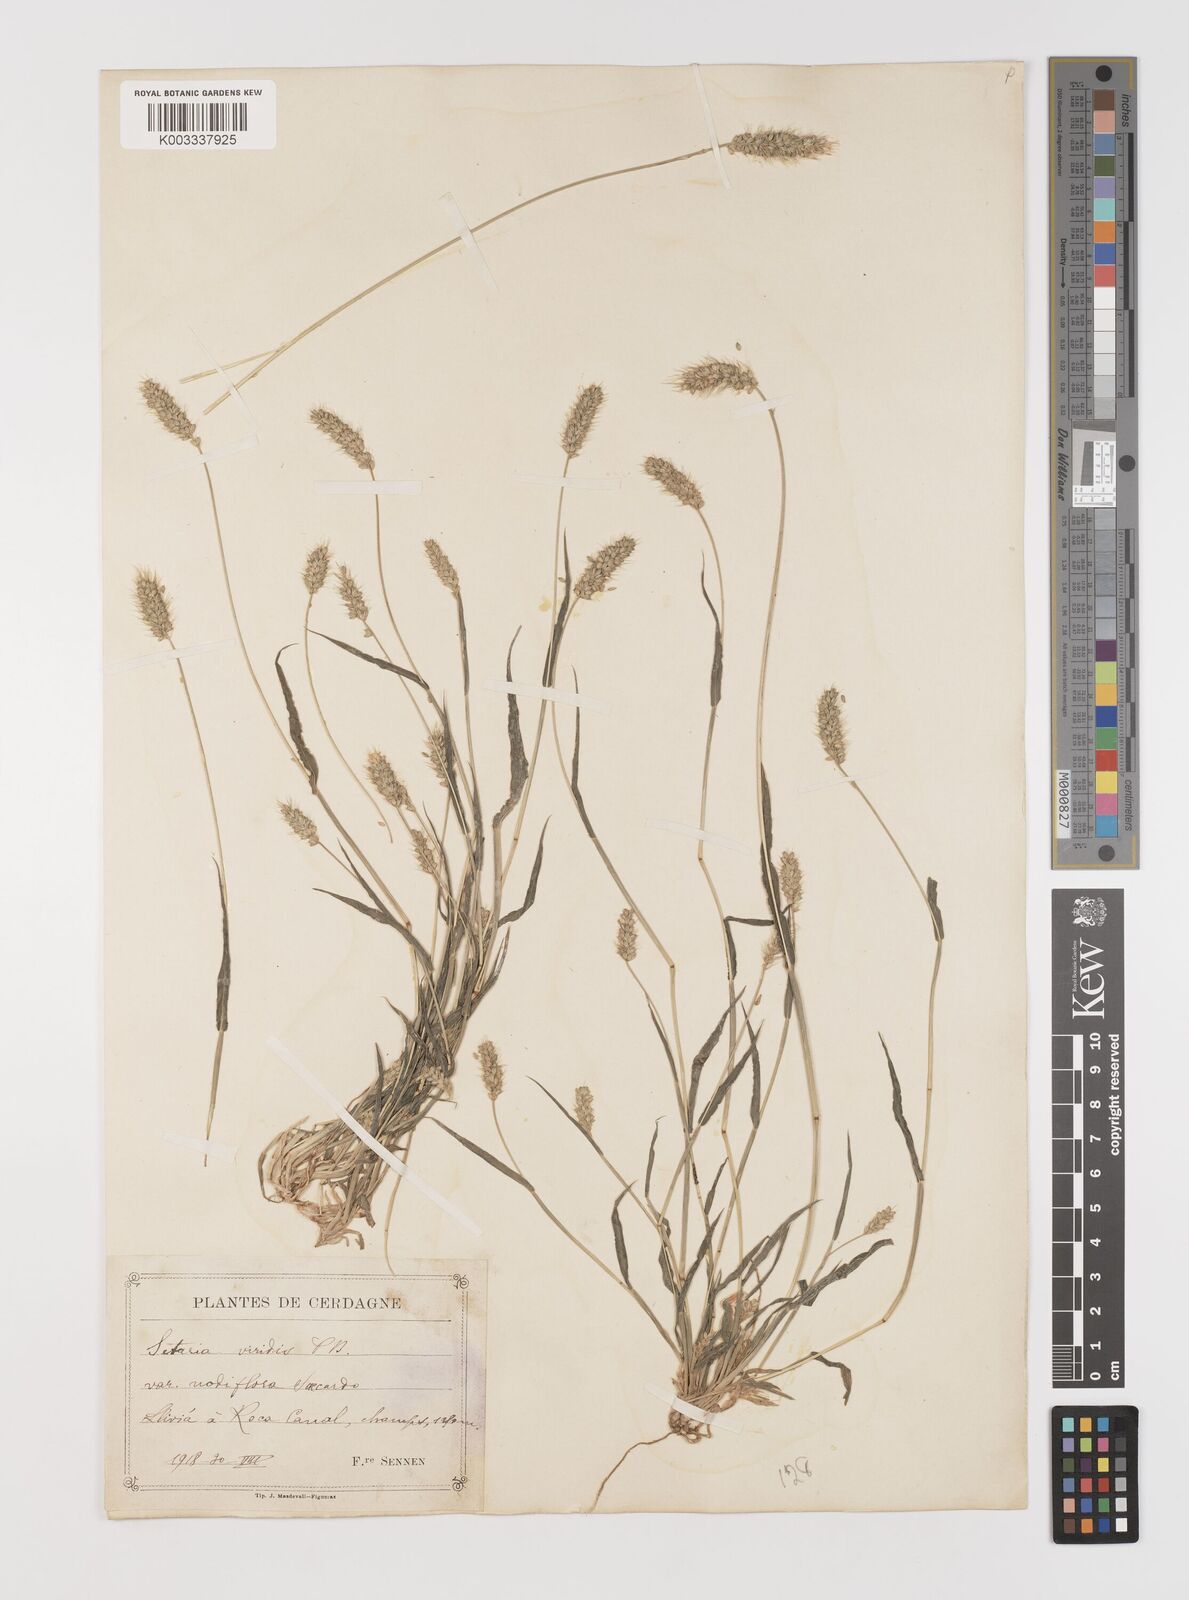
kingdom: Plantae
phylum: Tracheophyta
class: Liliopsida
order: Poales
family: Poaceae
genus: Setaria
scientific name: Setaria viridis
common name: Green bristlegrass
